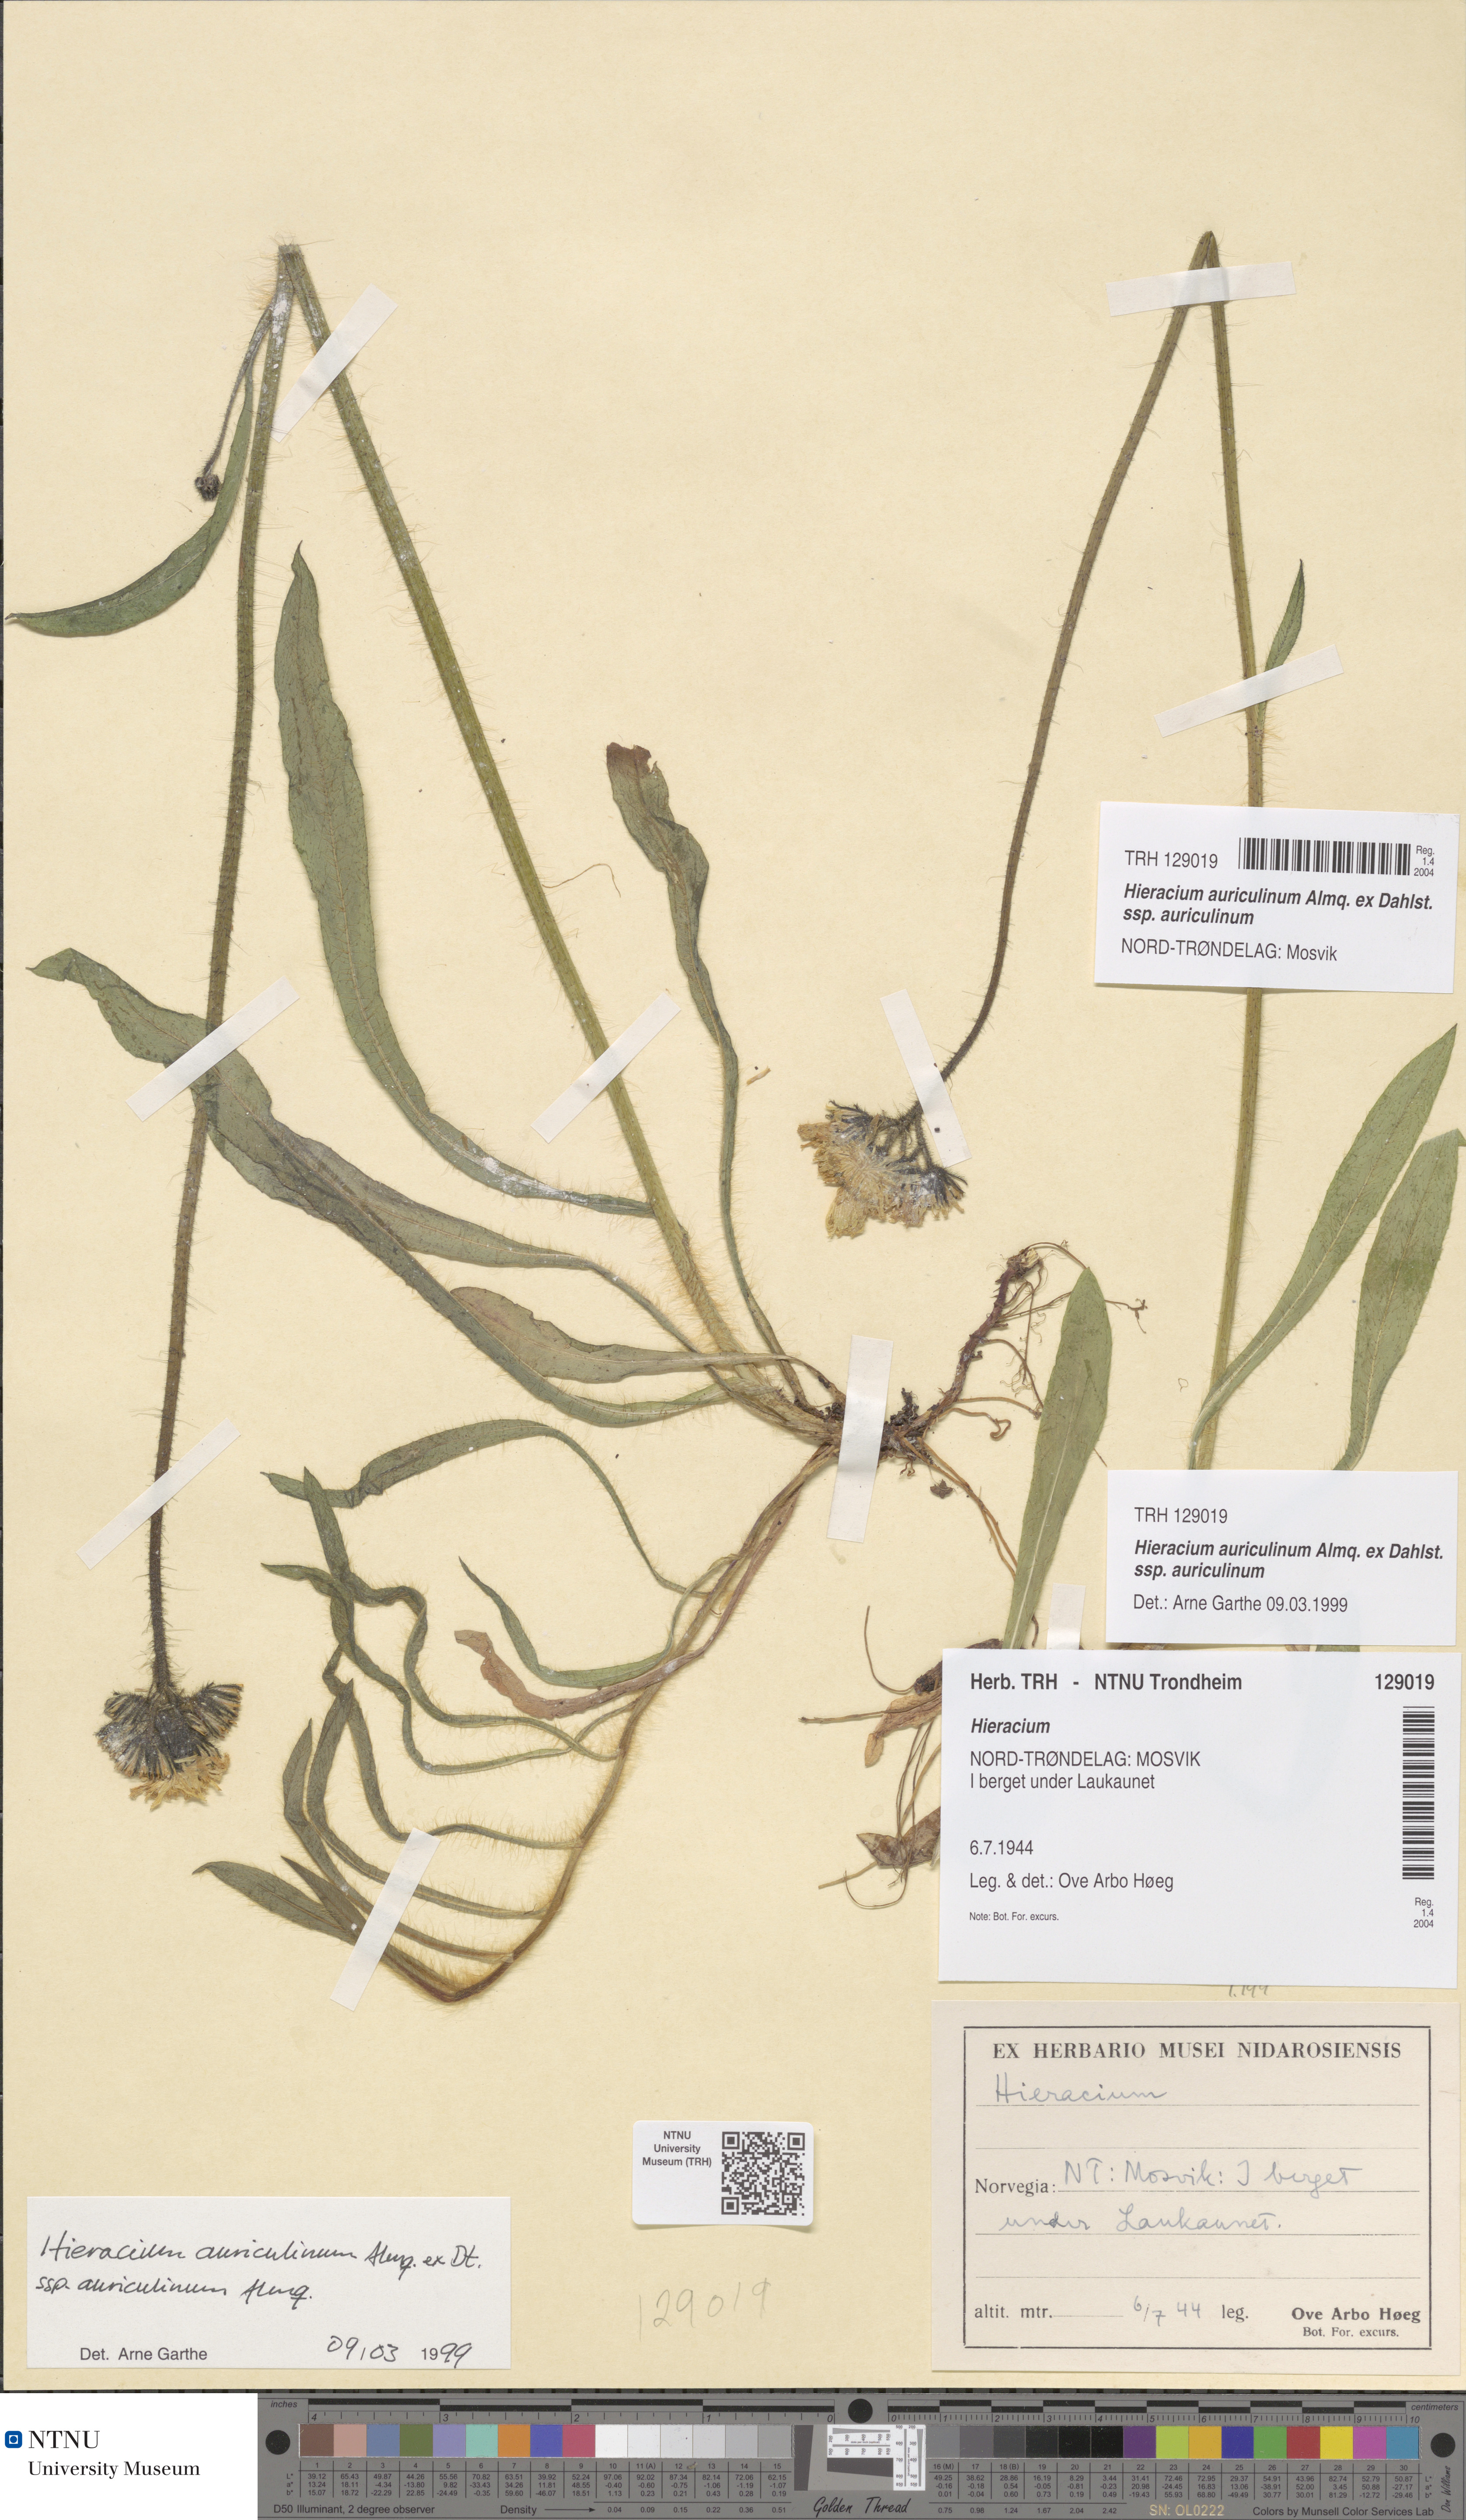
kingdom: Plantae
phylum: Tracheophyta
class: Magnoliopsida
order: Asterales
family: Asteraceae
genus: Pilosella
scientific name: Pilosella dubia
